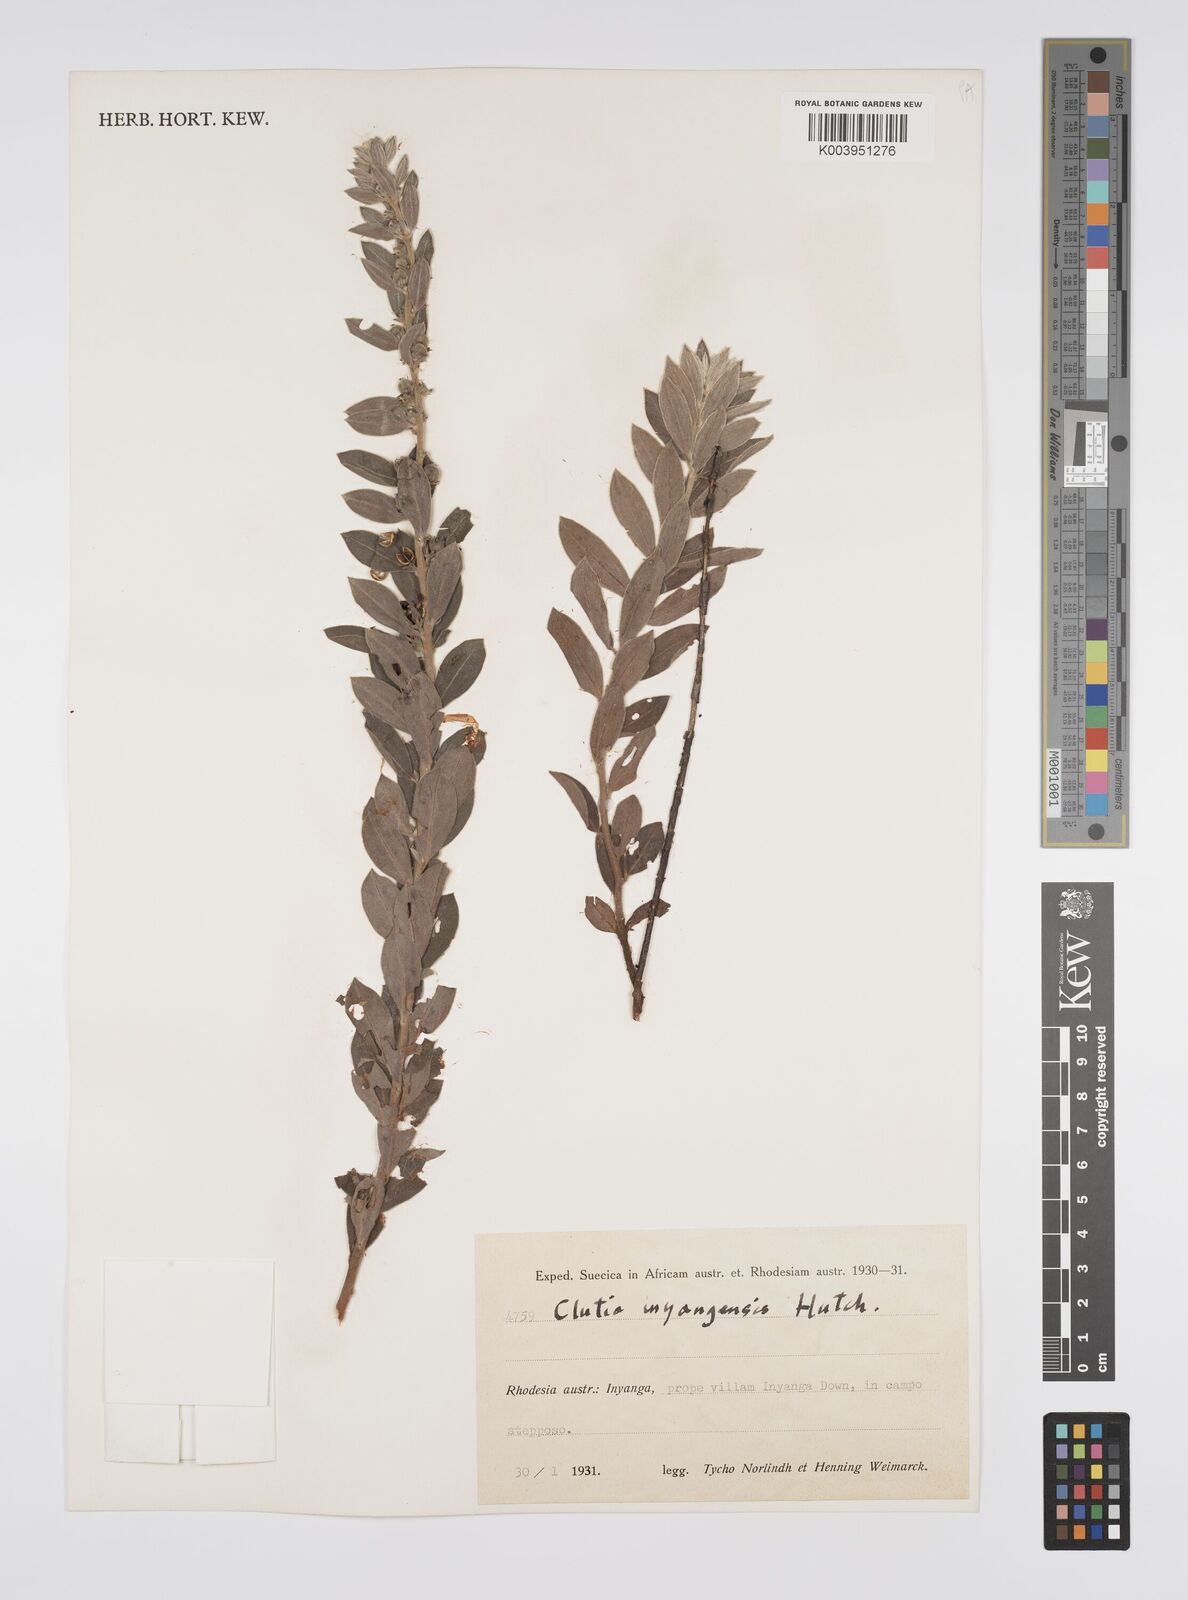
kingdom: Plantae
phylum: Tracheophyta
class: Magnoliopsida
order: Malpighiales
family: Peraceae
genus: Clutia
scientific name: Clutia
